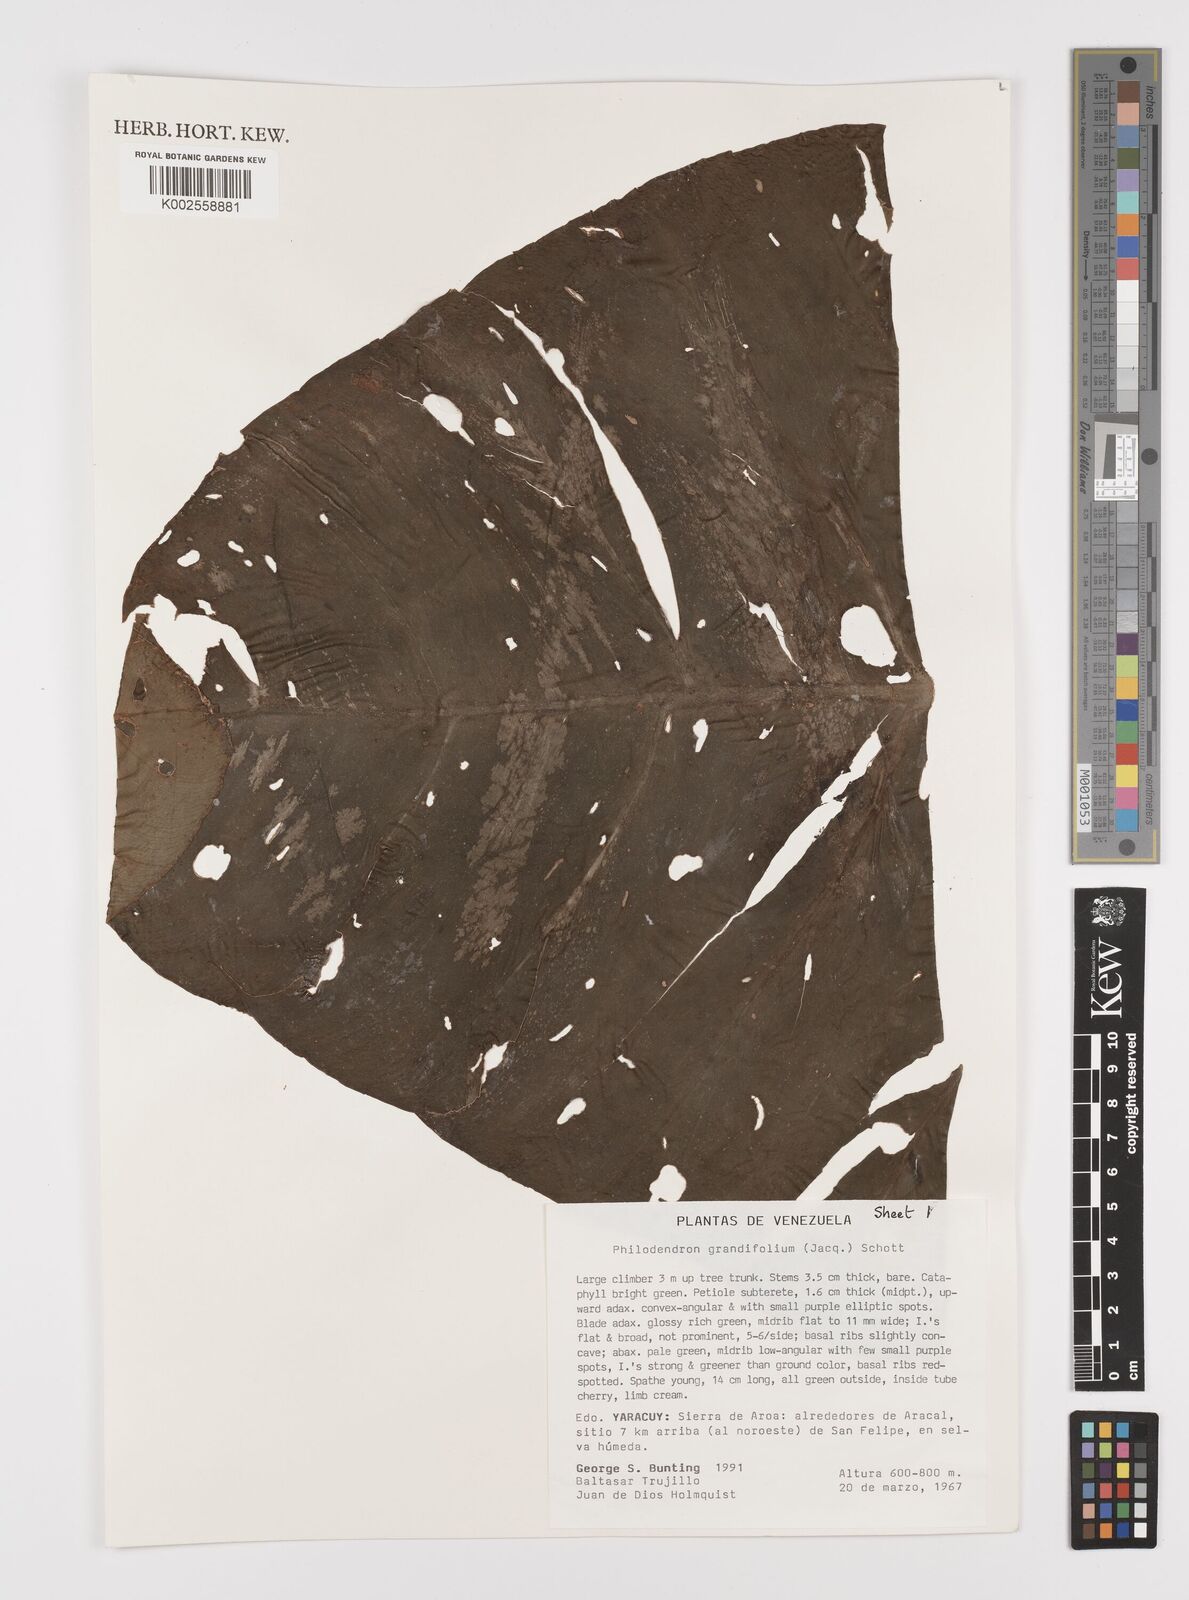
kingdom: Plantae
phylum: Tracheophyta
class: Liliopsida
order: Alismatales
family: Araceae
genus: Philodendron
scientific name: Philodendron grandifolium
